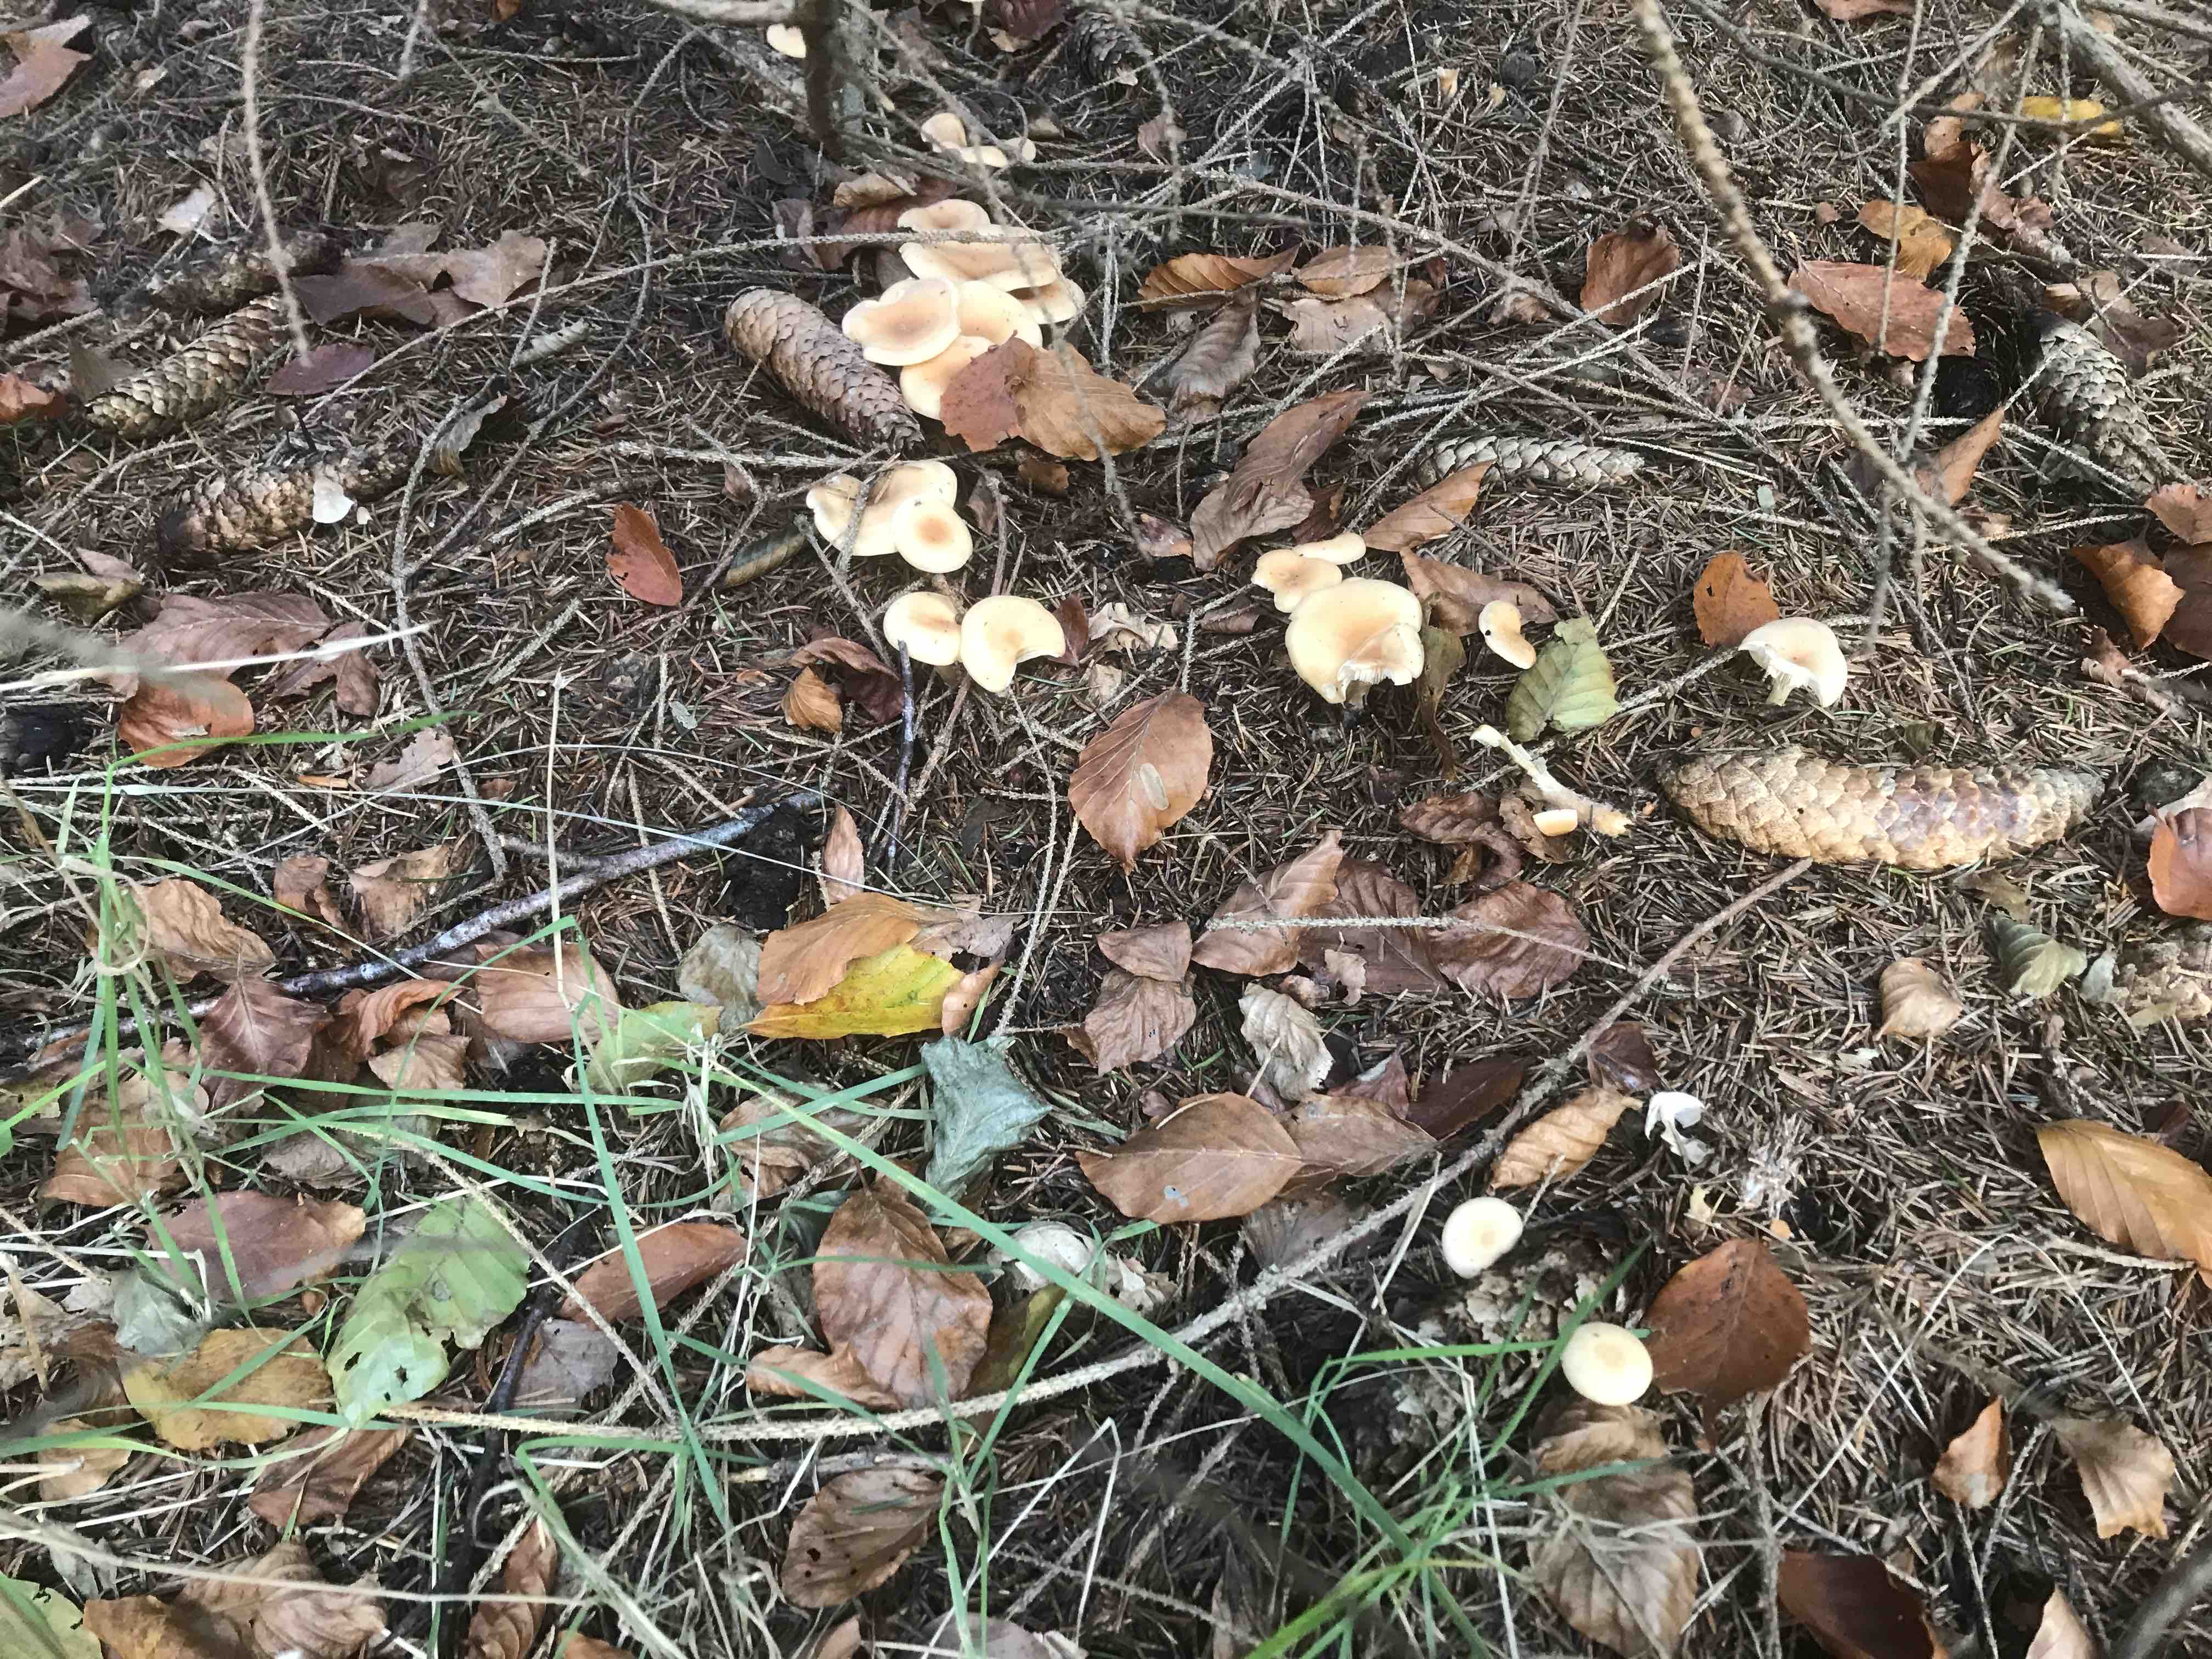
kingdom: Fungi
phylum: Basidiomycota
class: Agaricomycetes
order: Agaricales
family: Tricholomataceae
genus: Paralepista
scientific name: Paralepista flaccida
